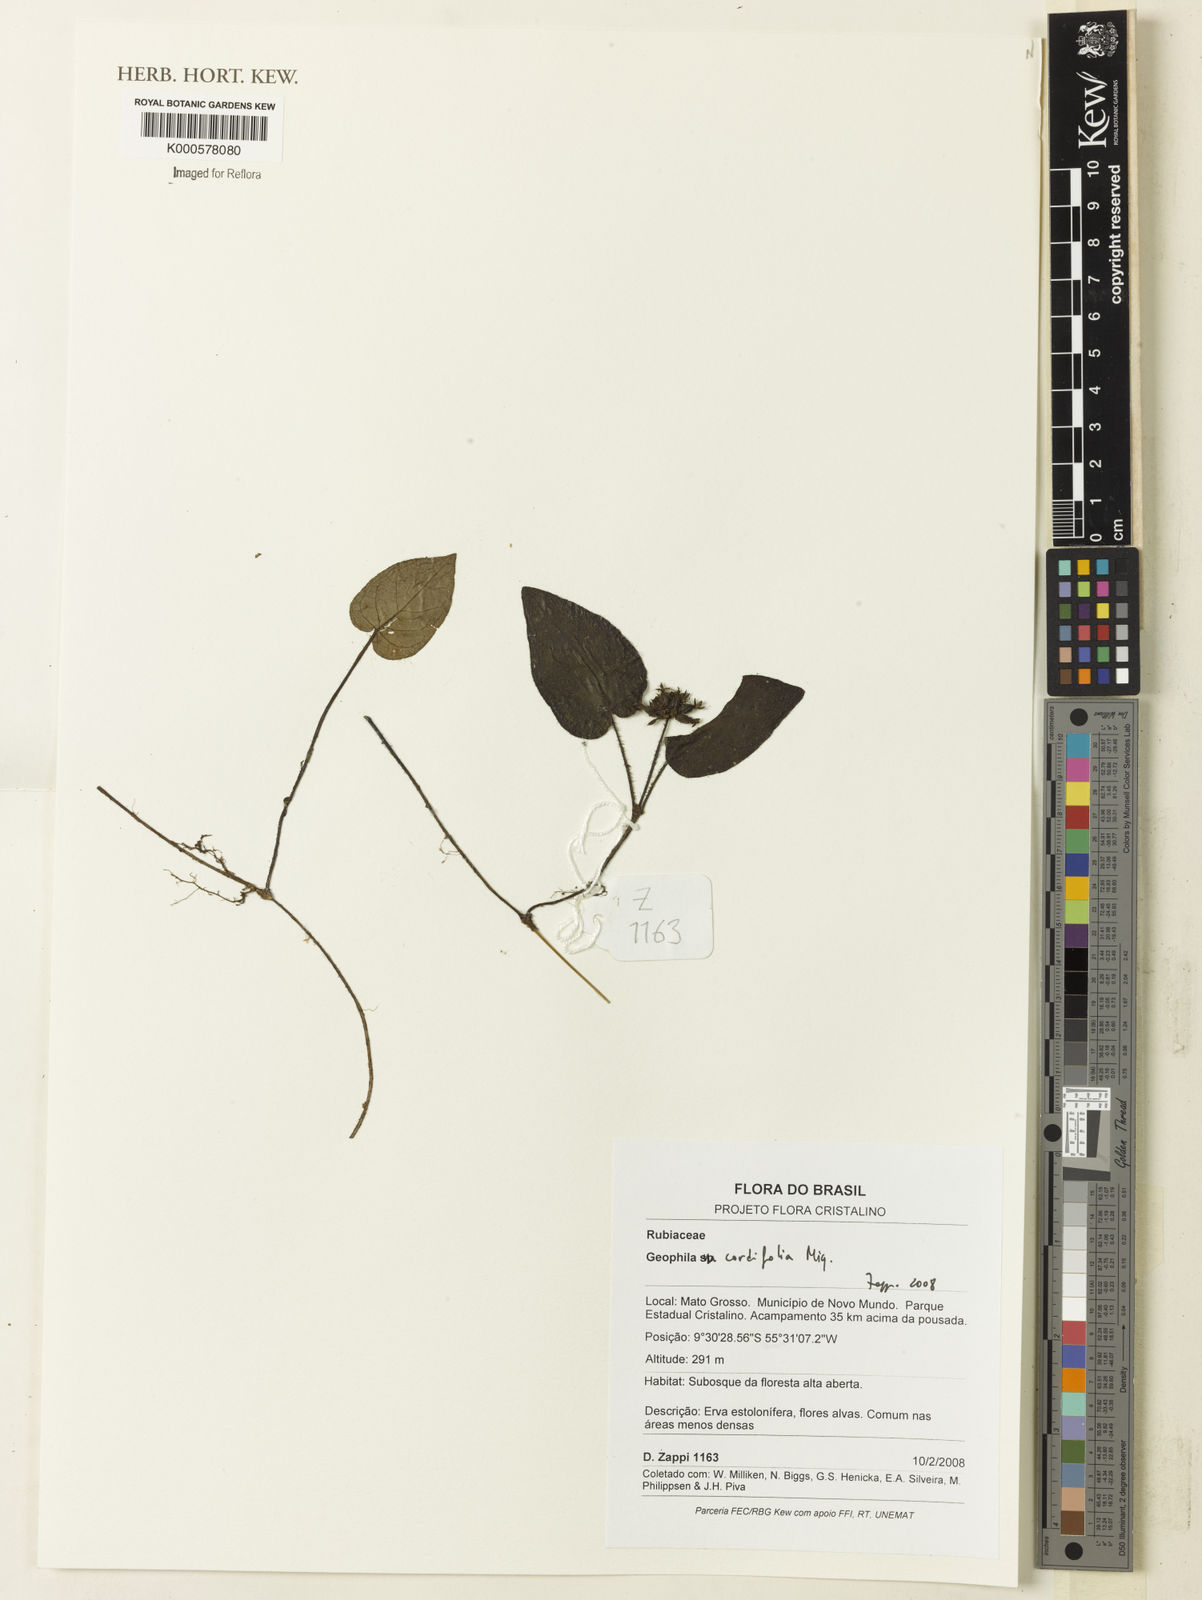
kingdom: Plantae
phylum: Tracheophyta
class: Magnoliopsida
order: Gentianales
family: Rubiaceae
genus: Geophila
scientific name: Geophila cordifolia
